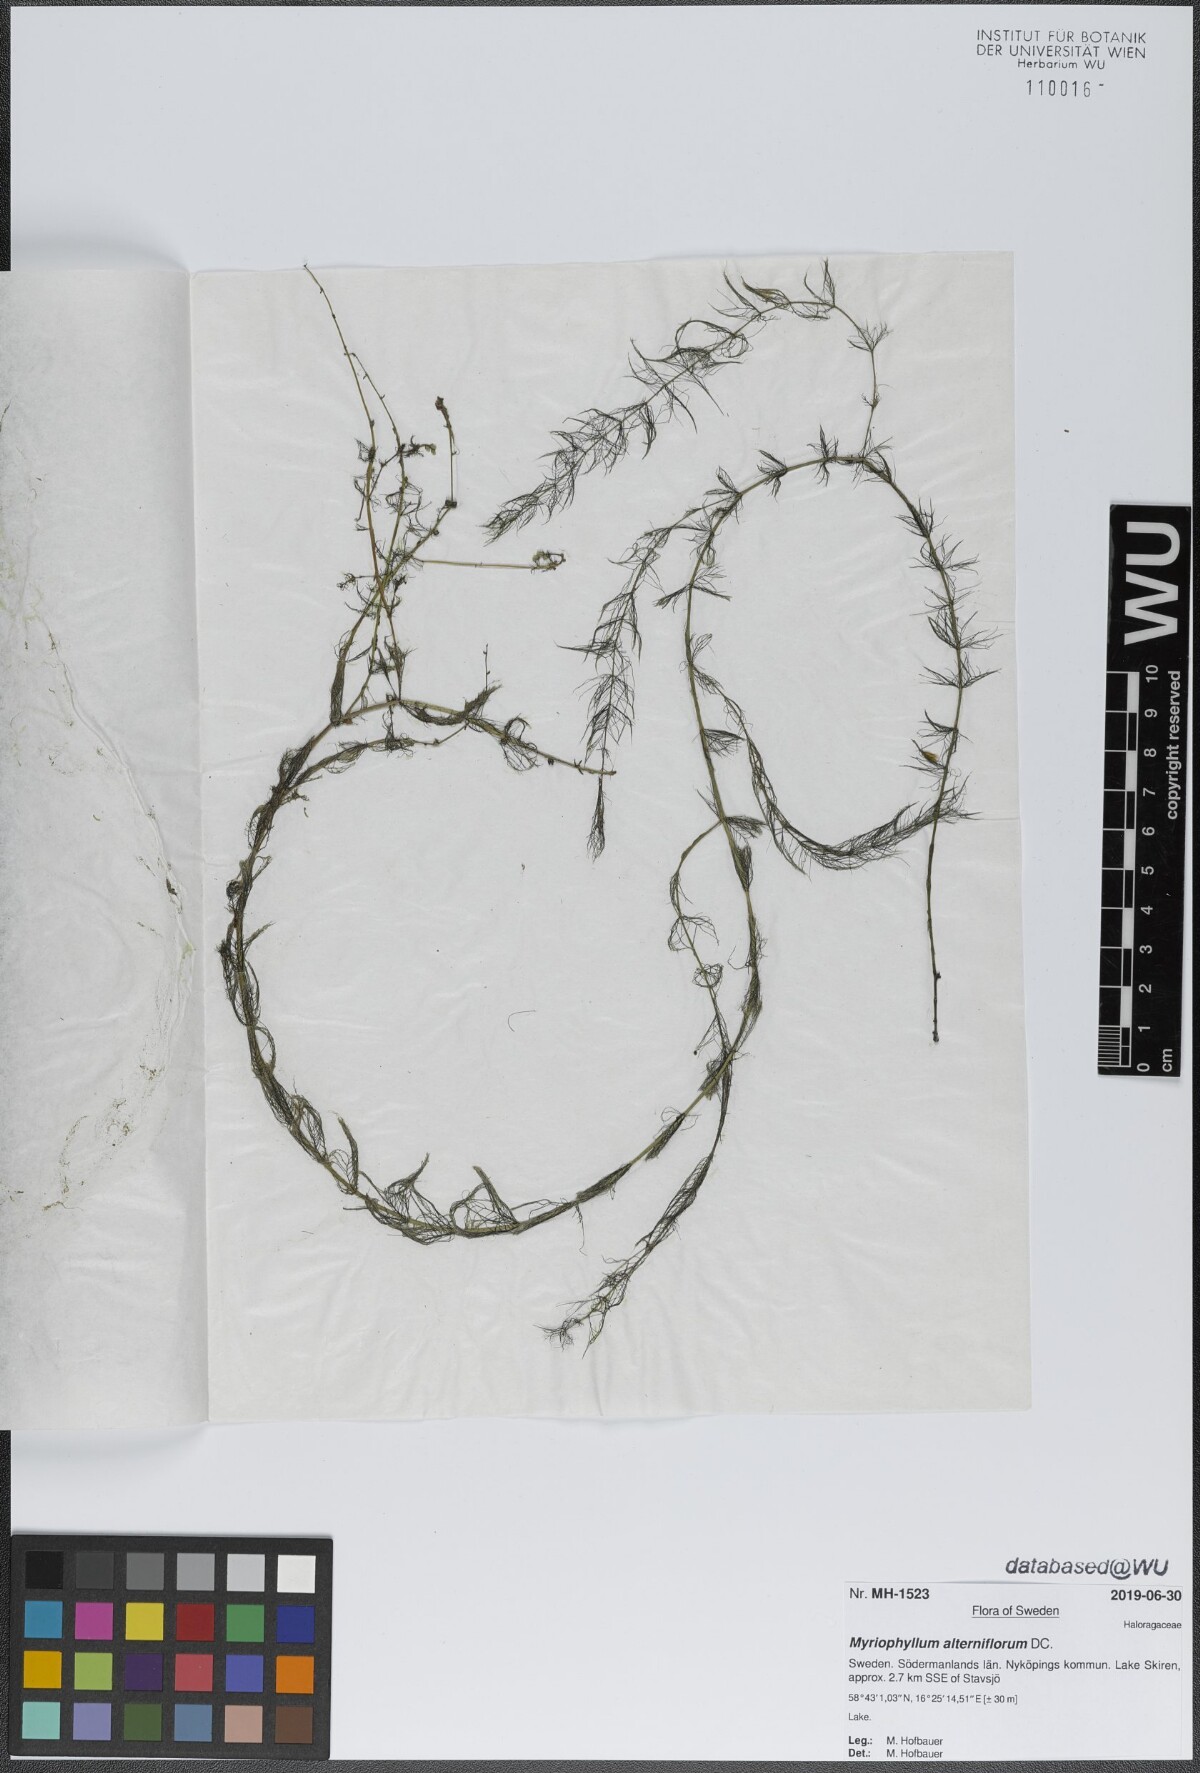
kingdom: Plantae
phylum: Tracheophyta
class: Magnoliopsida
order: Saxifragales
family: Haloragaceae
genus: Myriophyllum
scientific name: Myriophyllum alterniflorum
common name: Alternate water-milfoil
